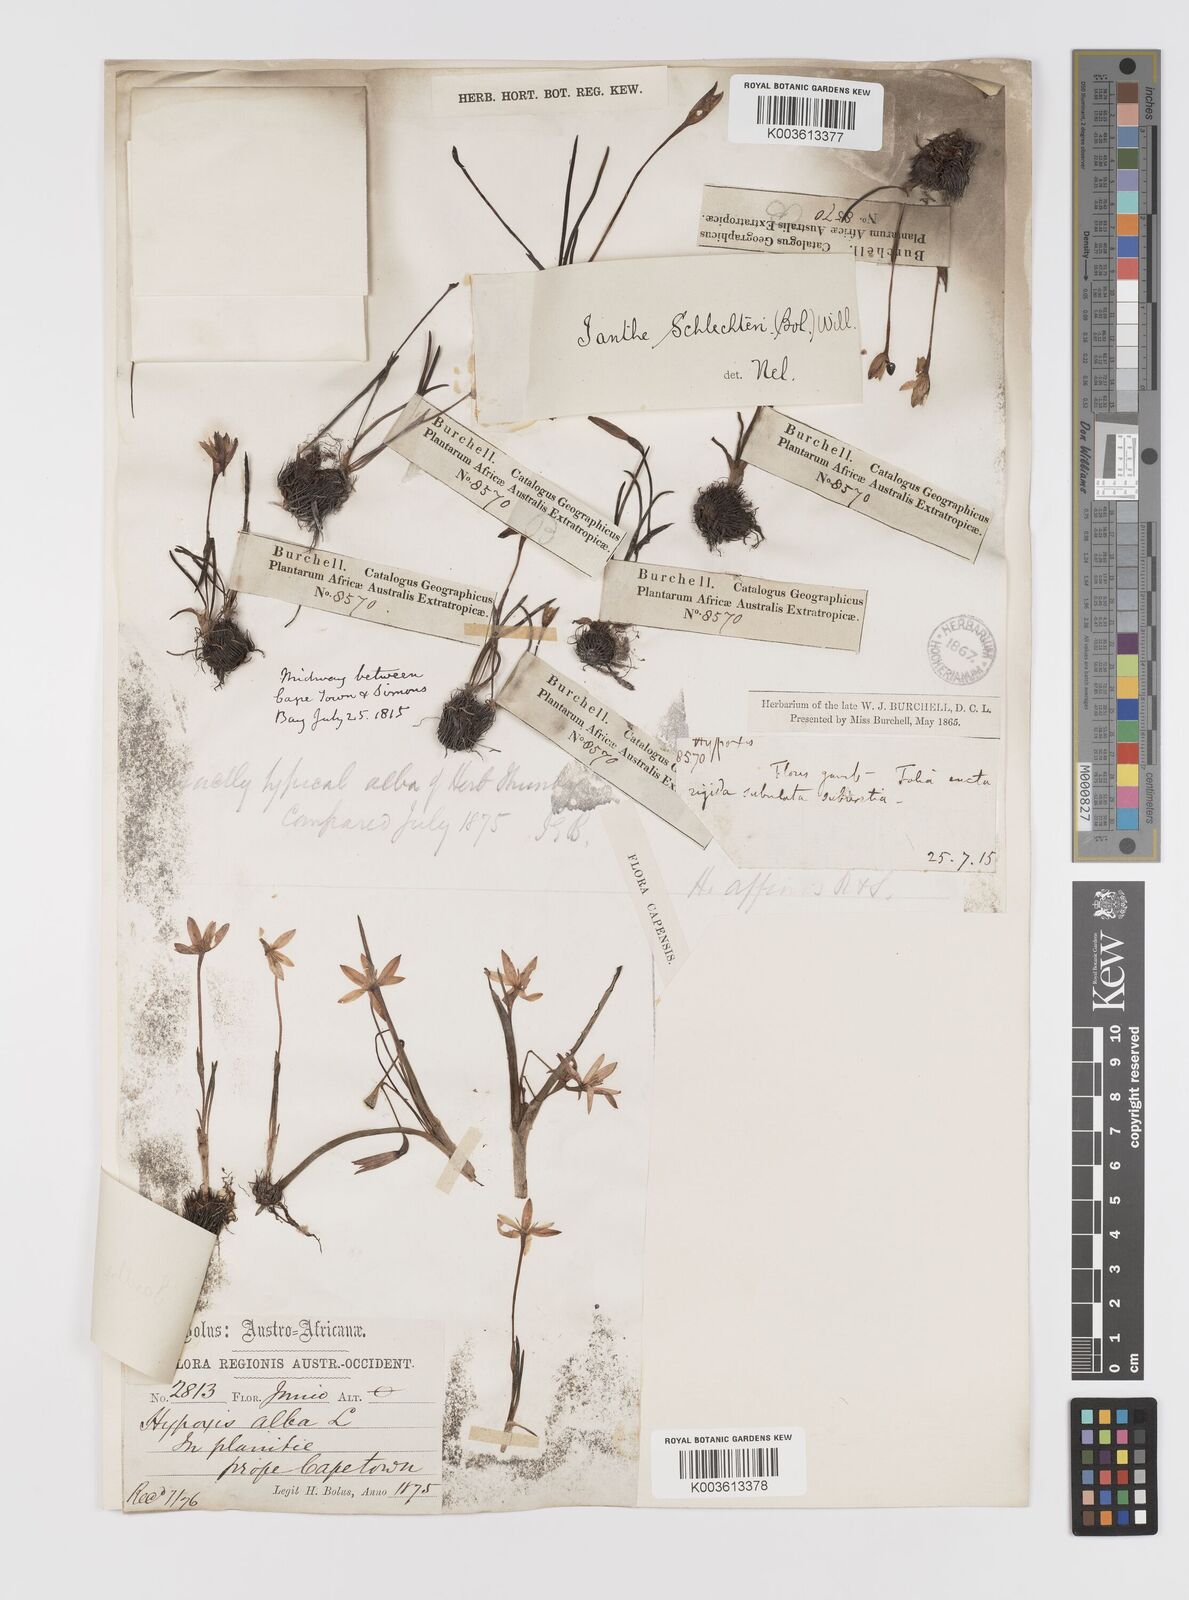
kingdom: Plantae
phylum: Tracheophyta
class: Liliopsida
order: Asparagales
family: Hypoxidaceae
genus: Pauridia
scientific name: Pauridia affinis
